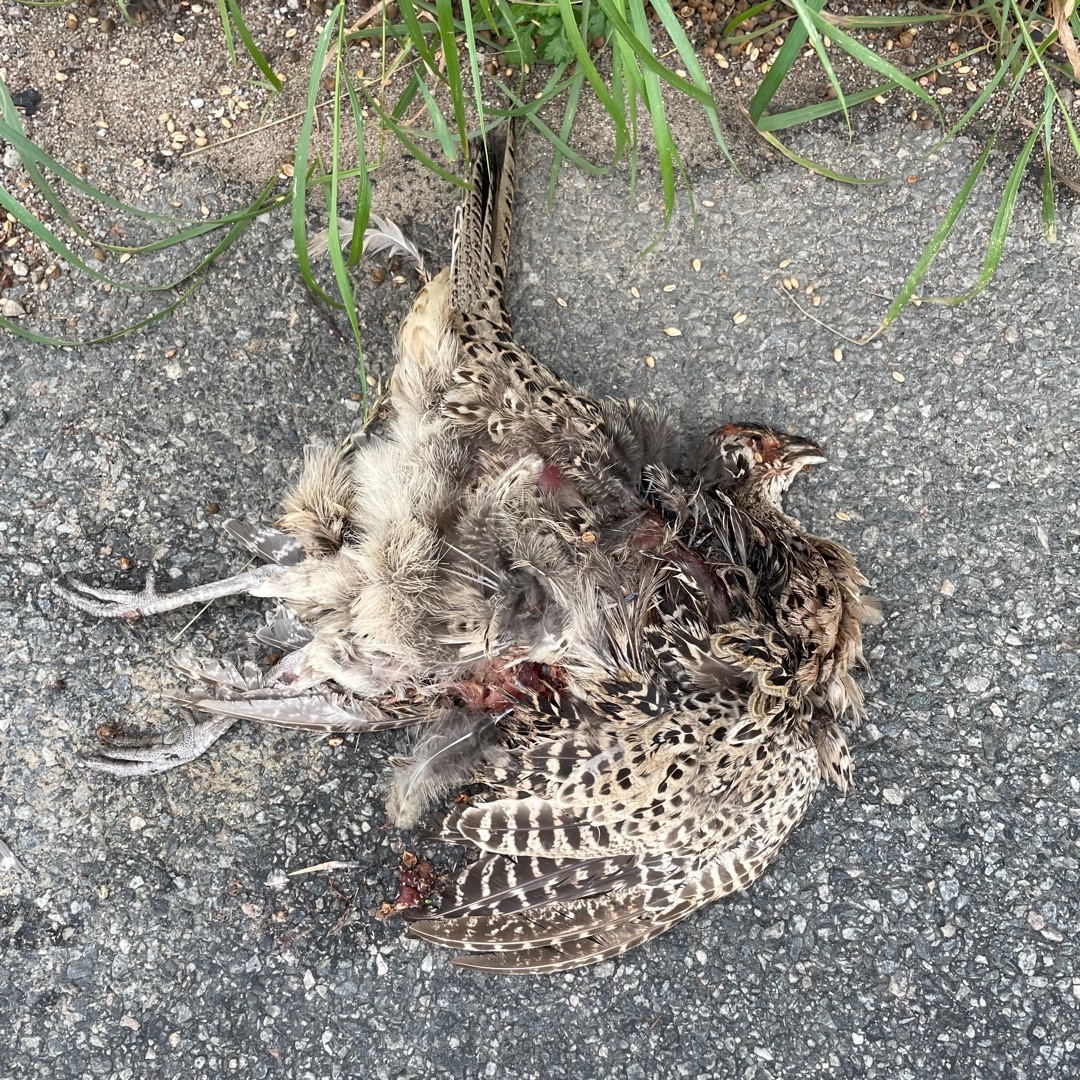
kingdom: Animalia
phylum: Chordata
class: Aves
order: Galliformes
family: Phasianidae
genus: Phasianus
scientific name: Phasianus colchicus
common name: Fasan
